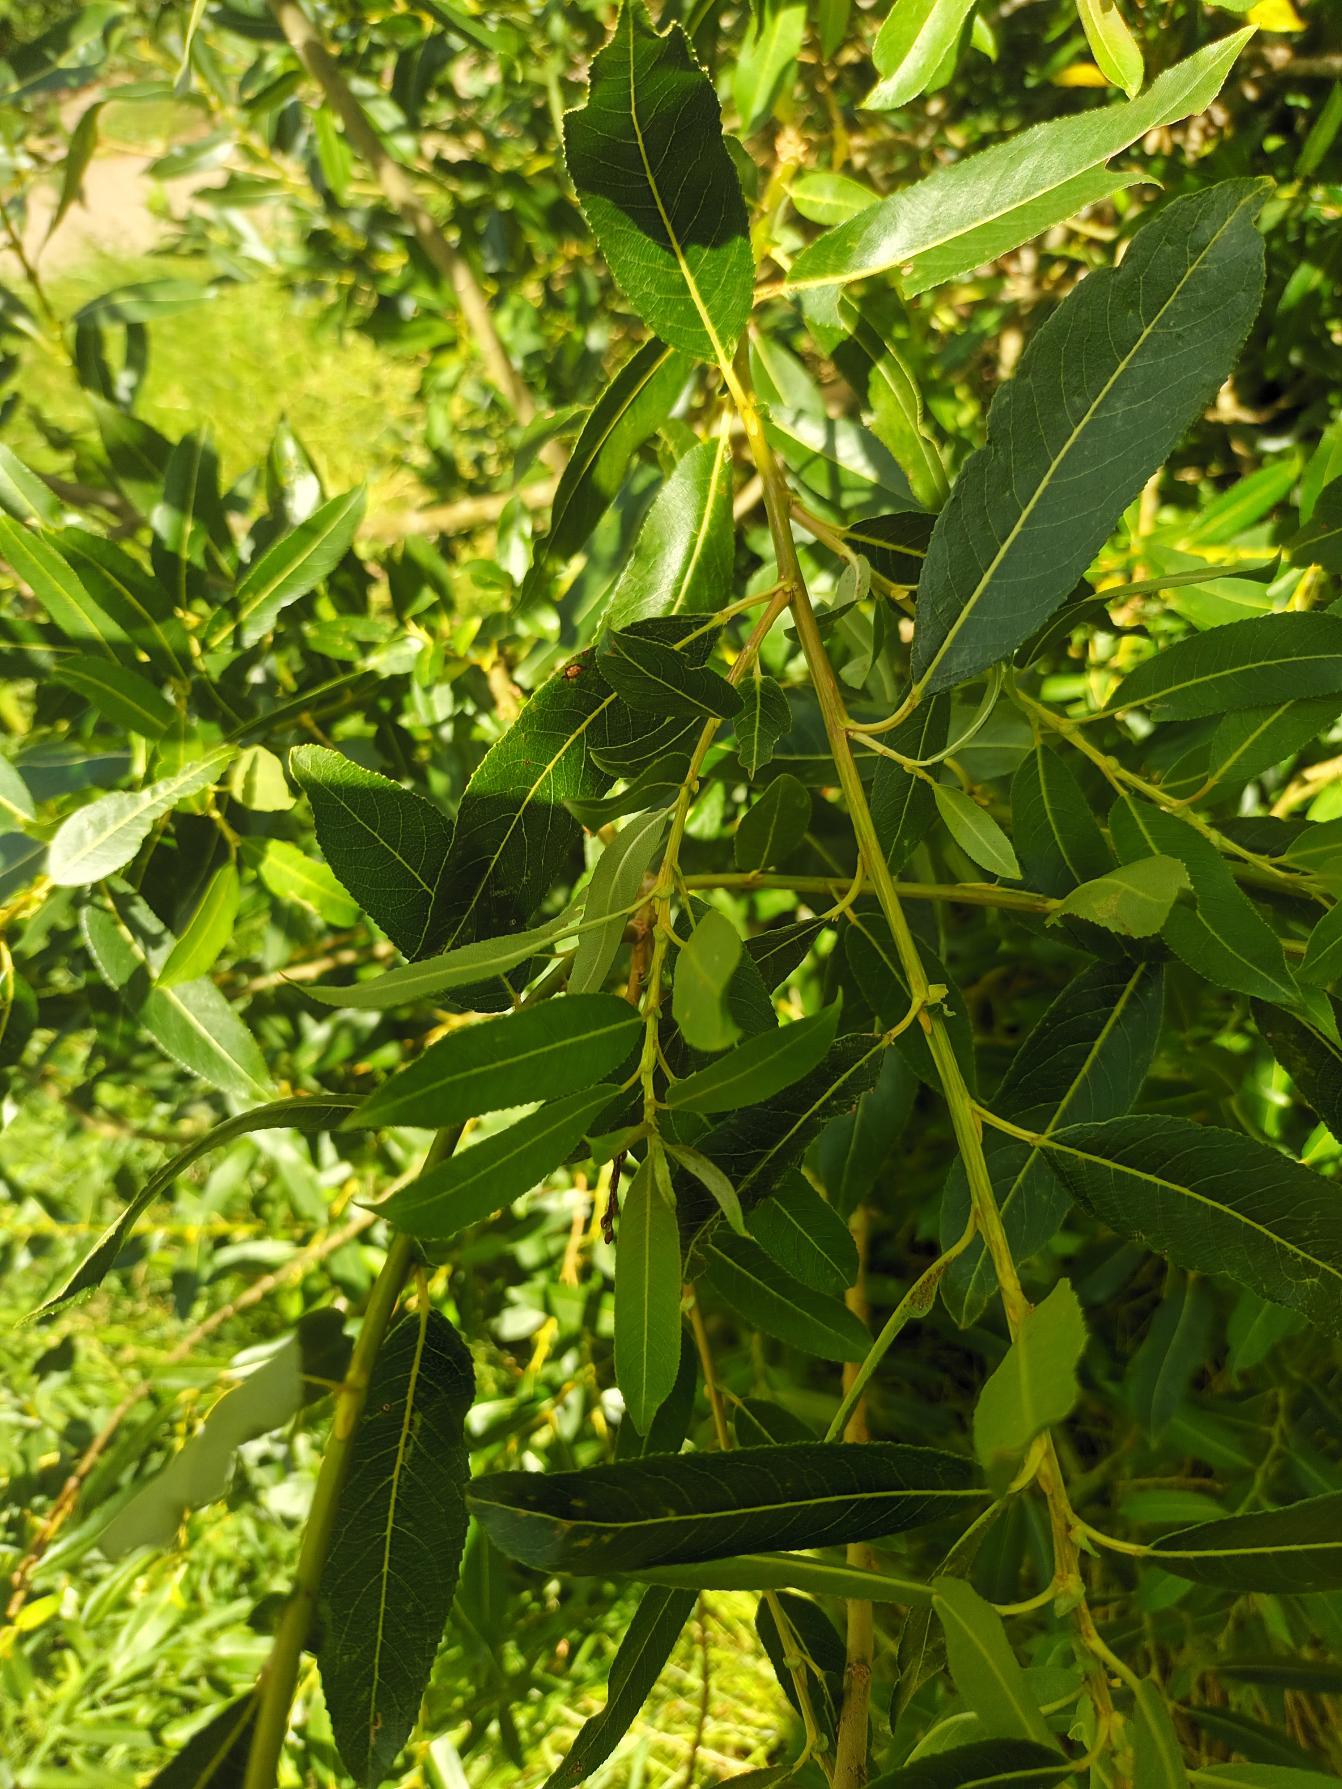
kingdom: Plantae
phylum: Tracheophyta
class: Magnoliopsida
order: Malpighiales
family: Salicaceae
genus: Salix
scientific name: Salix triandra
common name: Mandel-pil
